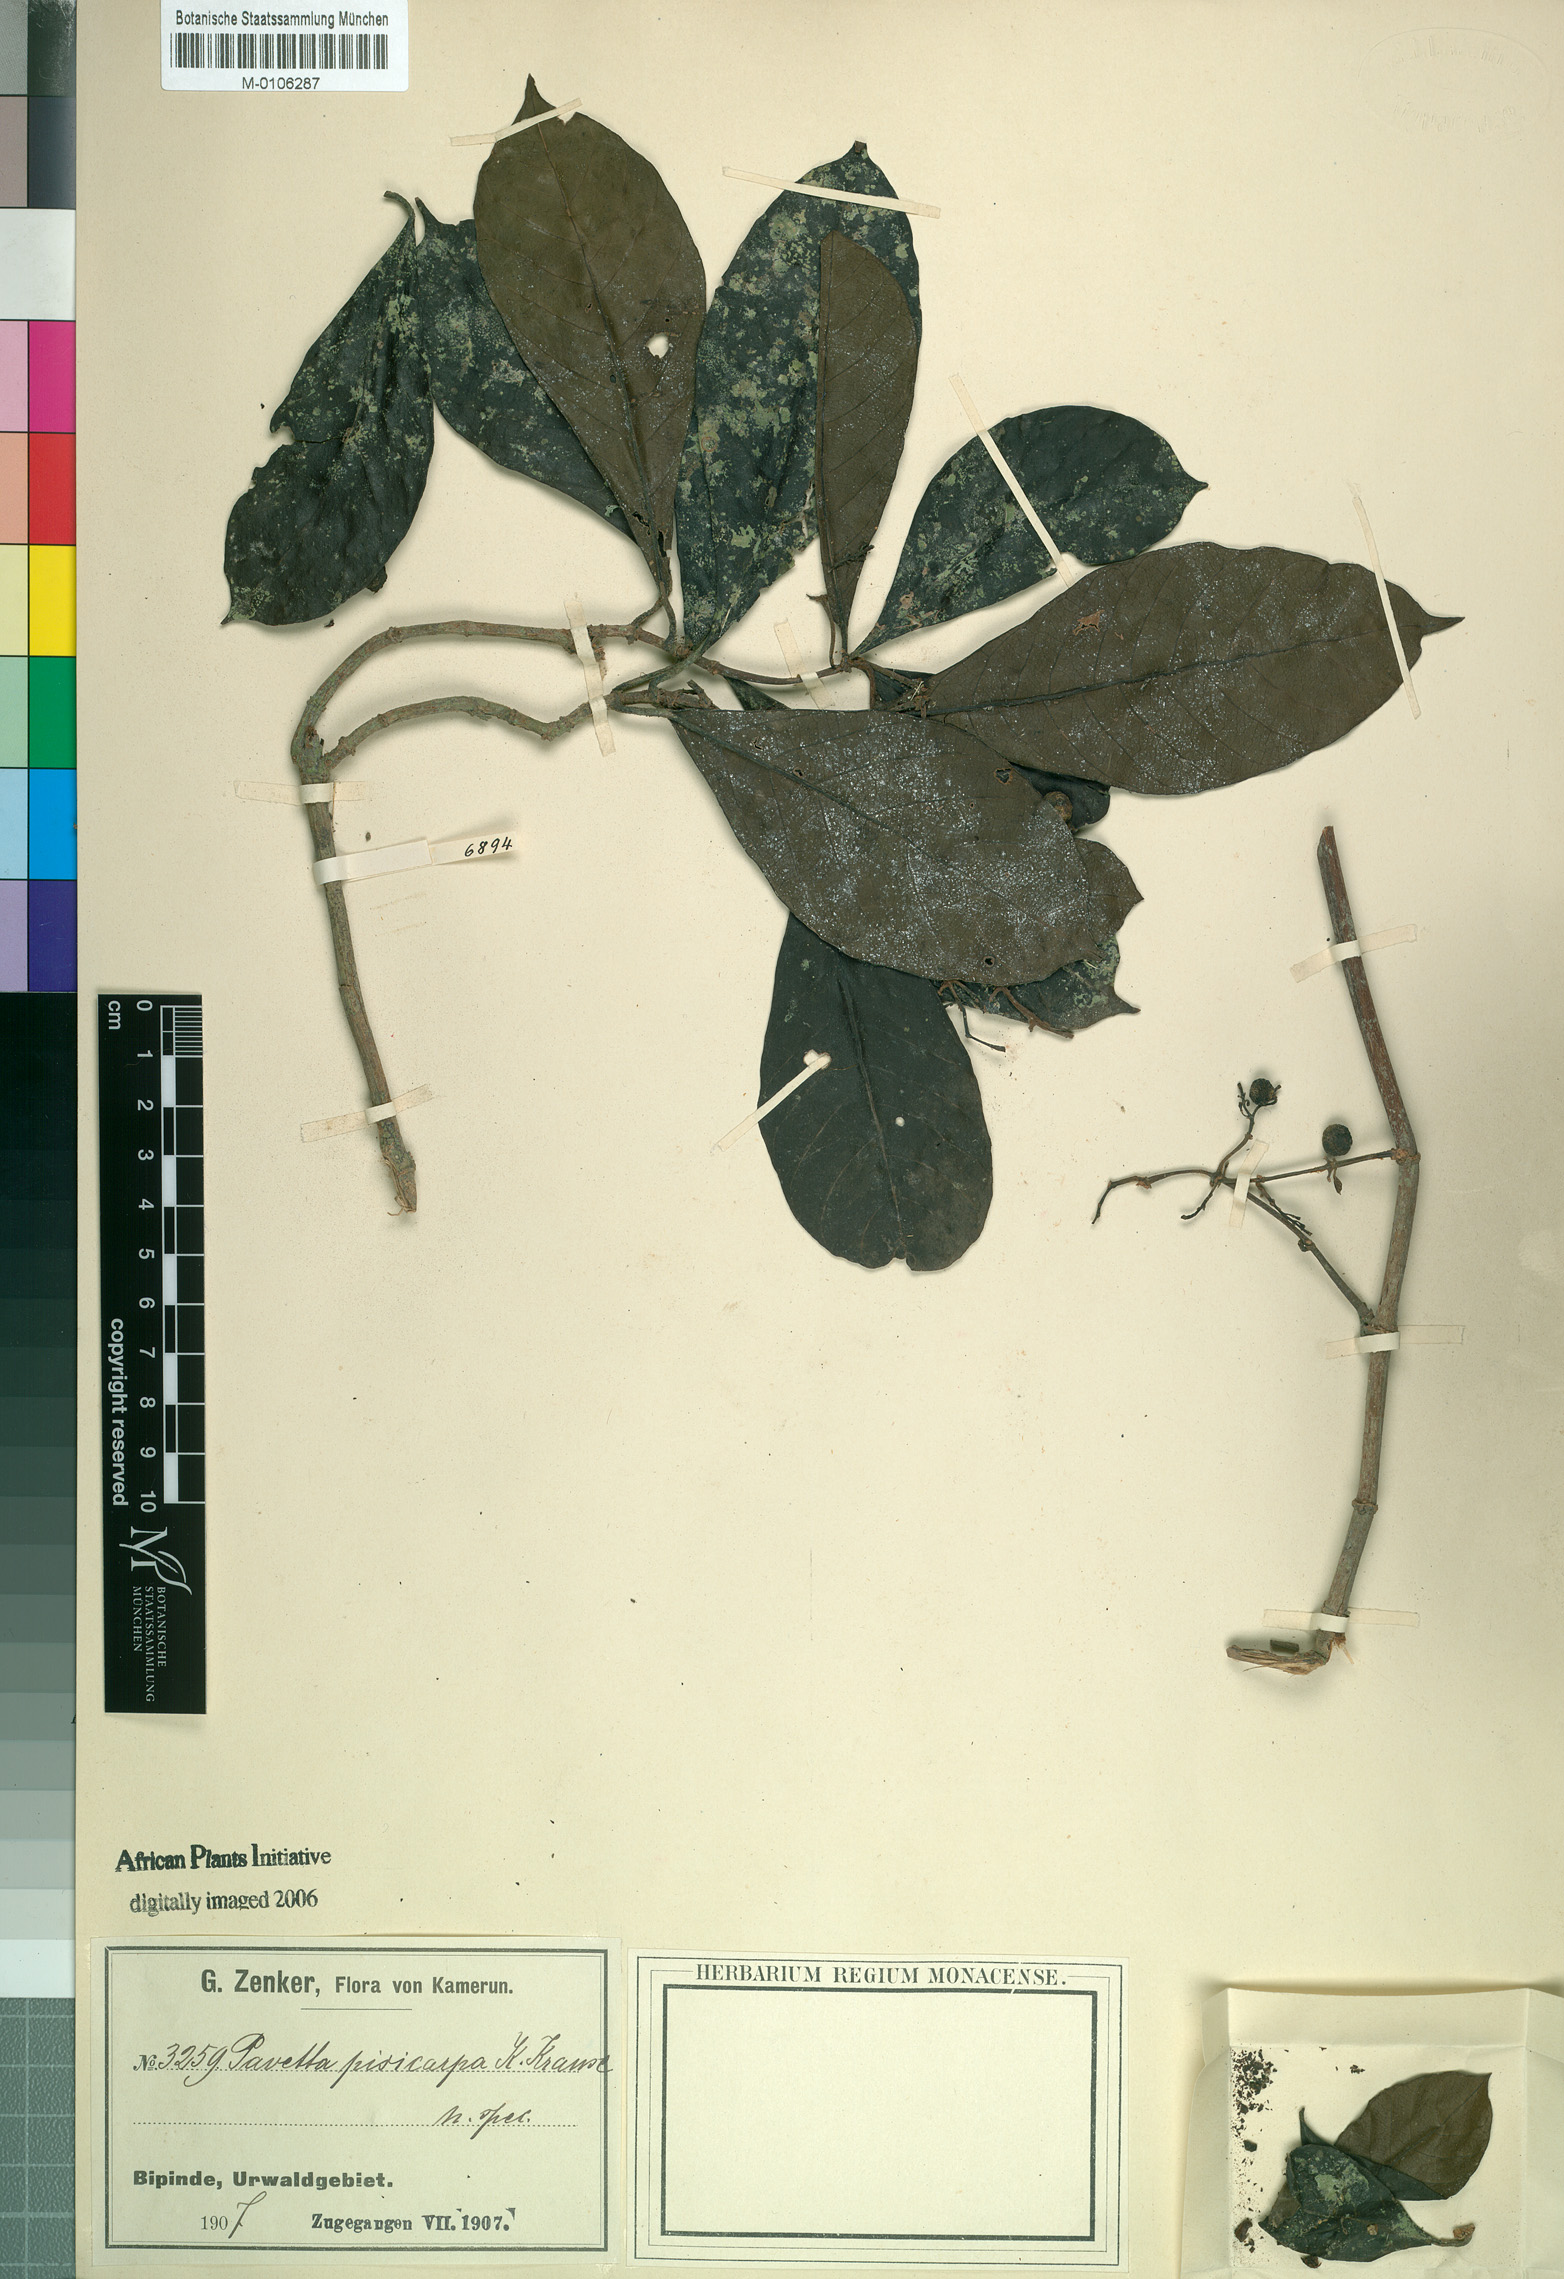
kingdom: Plantae
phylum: Tracheophyta
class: Magnoliopsida
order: Gentianales
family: Rubiaceae
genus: Pavetta
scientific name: Pavetta
